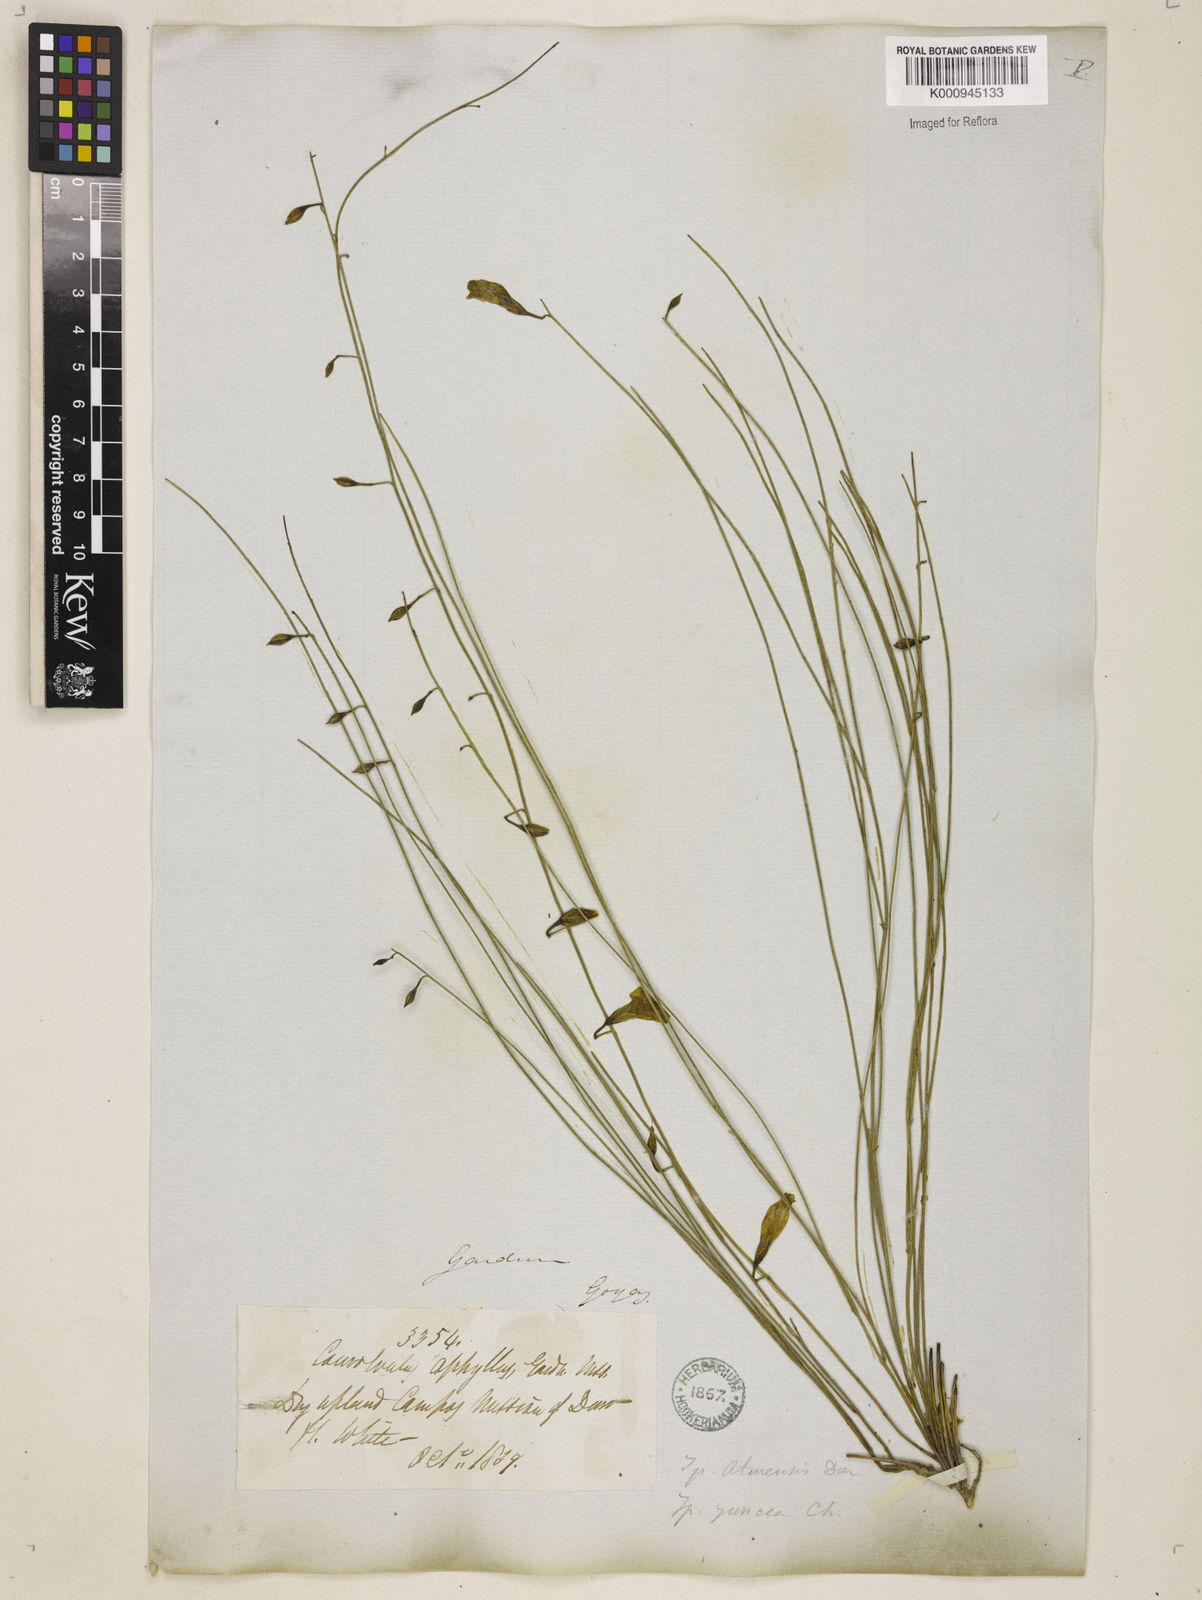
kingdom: Plantae
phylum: Tracheophyta
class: Magnoliopsida
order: Solanales
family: Convolvulaceae
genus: Distimake
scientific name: Distimake aturensis
